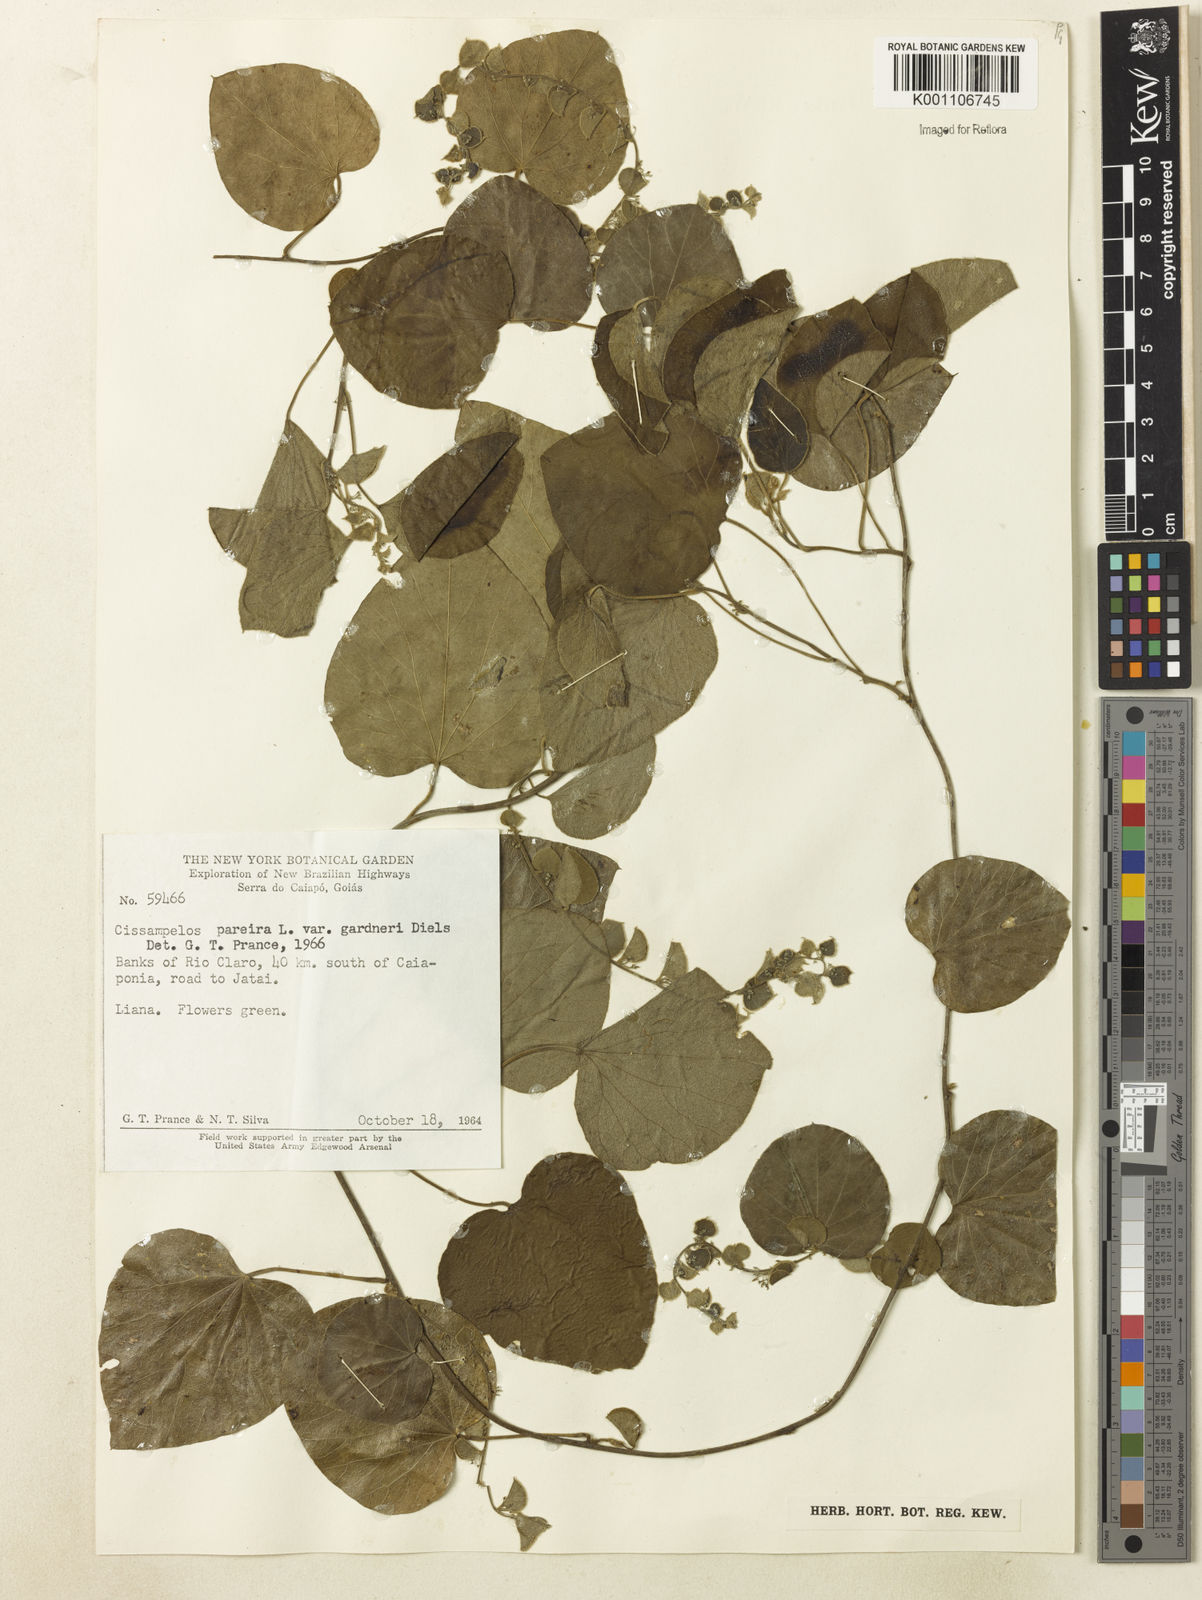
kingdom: Plantae
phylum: Tracheophyta
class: Magnoliopsida
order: Ranunculales
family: Menispermaceae
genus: Cissampelos
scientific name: Cissampelos pareira
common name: Velvetleaf
